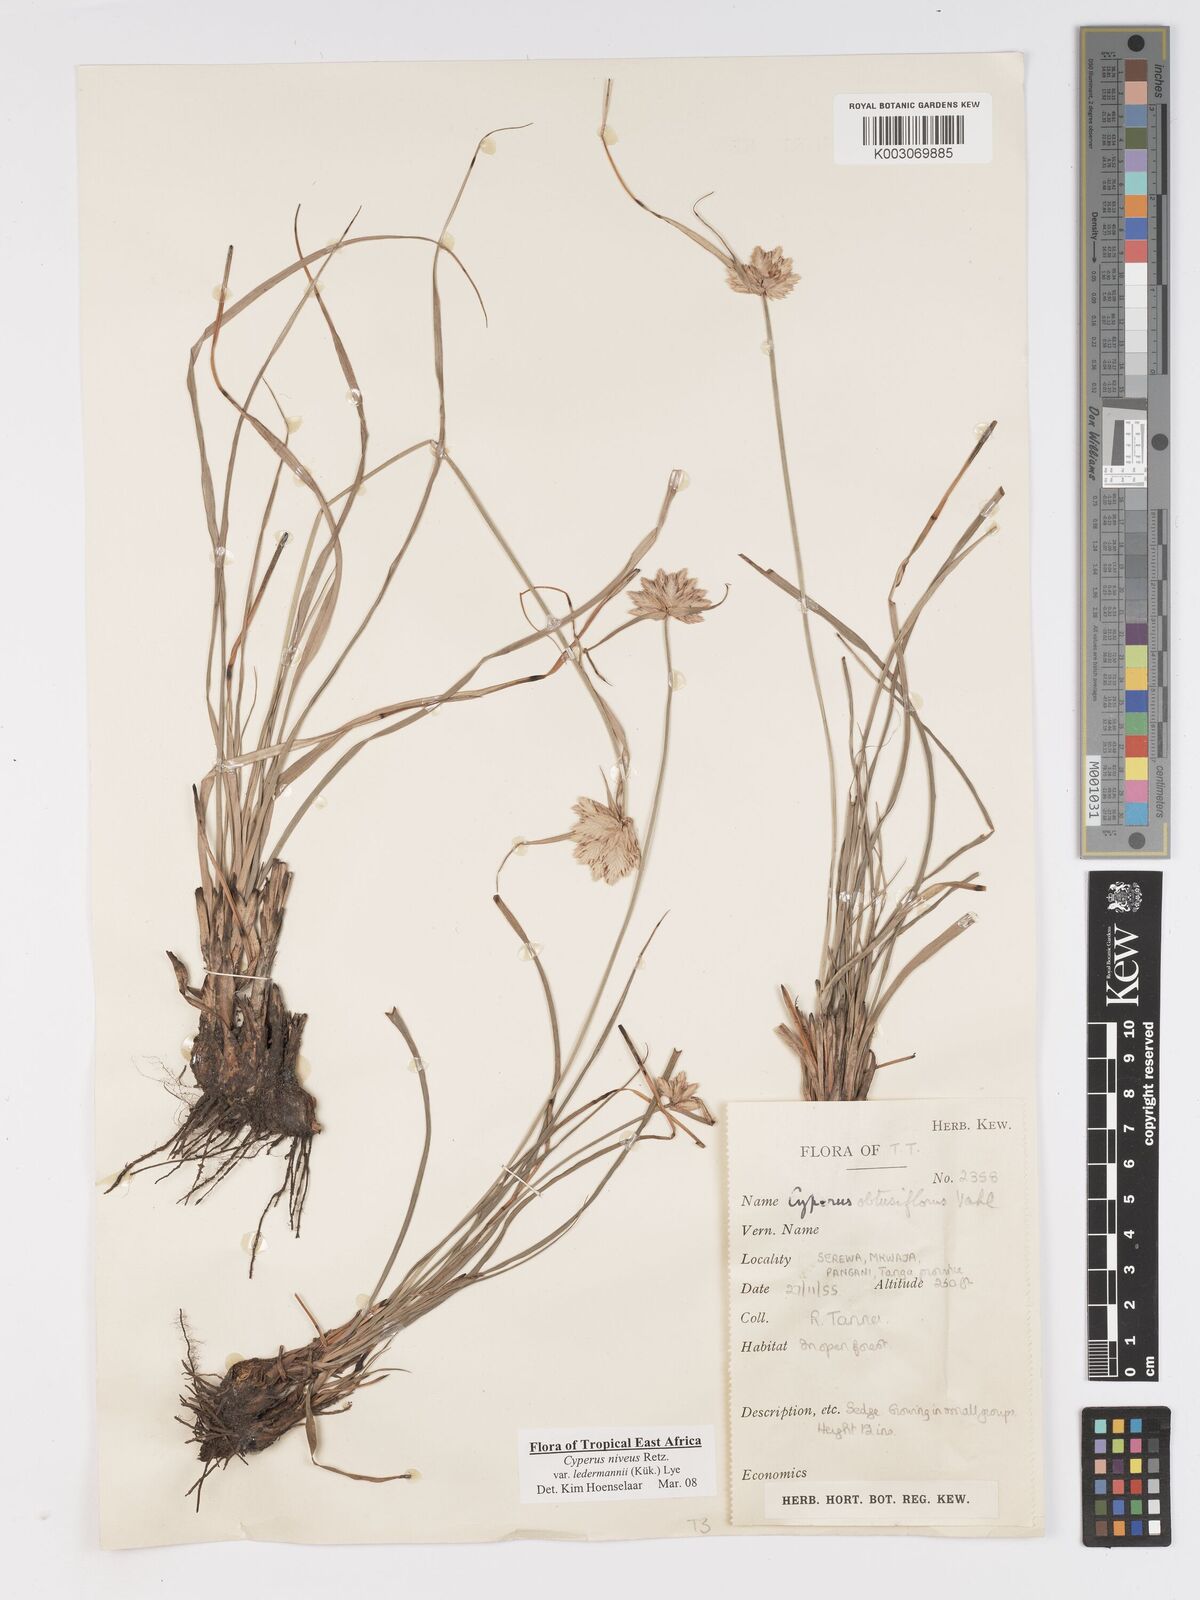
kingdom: Plantae
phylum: Tracheophyta
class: Liliopsida
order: Poales
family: Cyperaceae
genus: Cyperus
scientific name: Cyperus niveus
